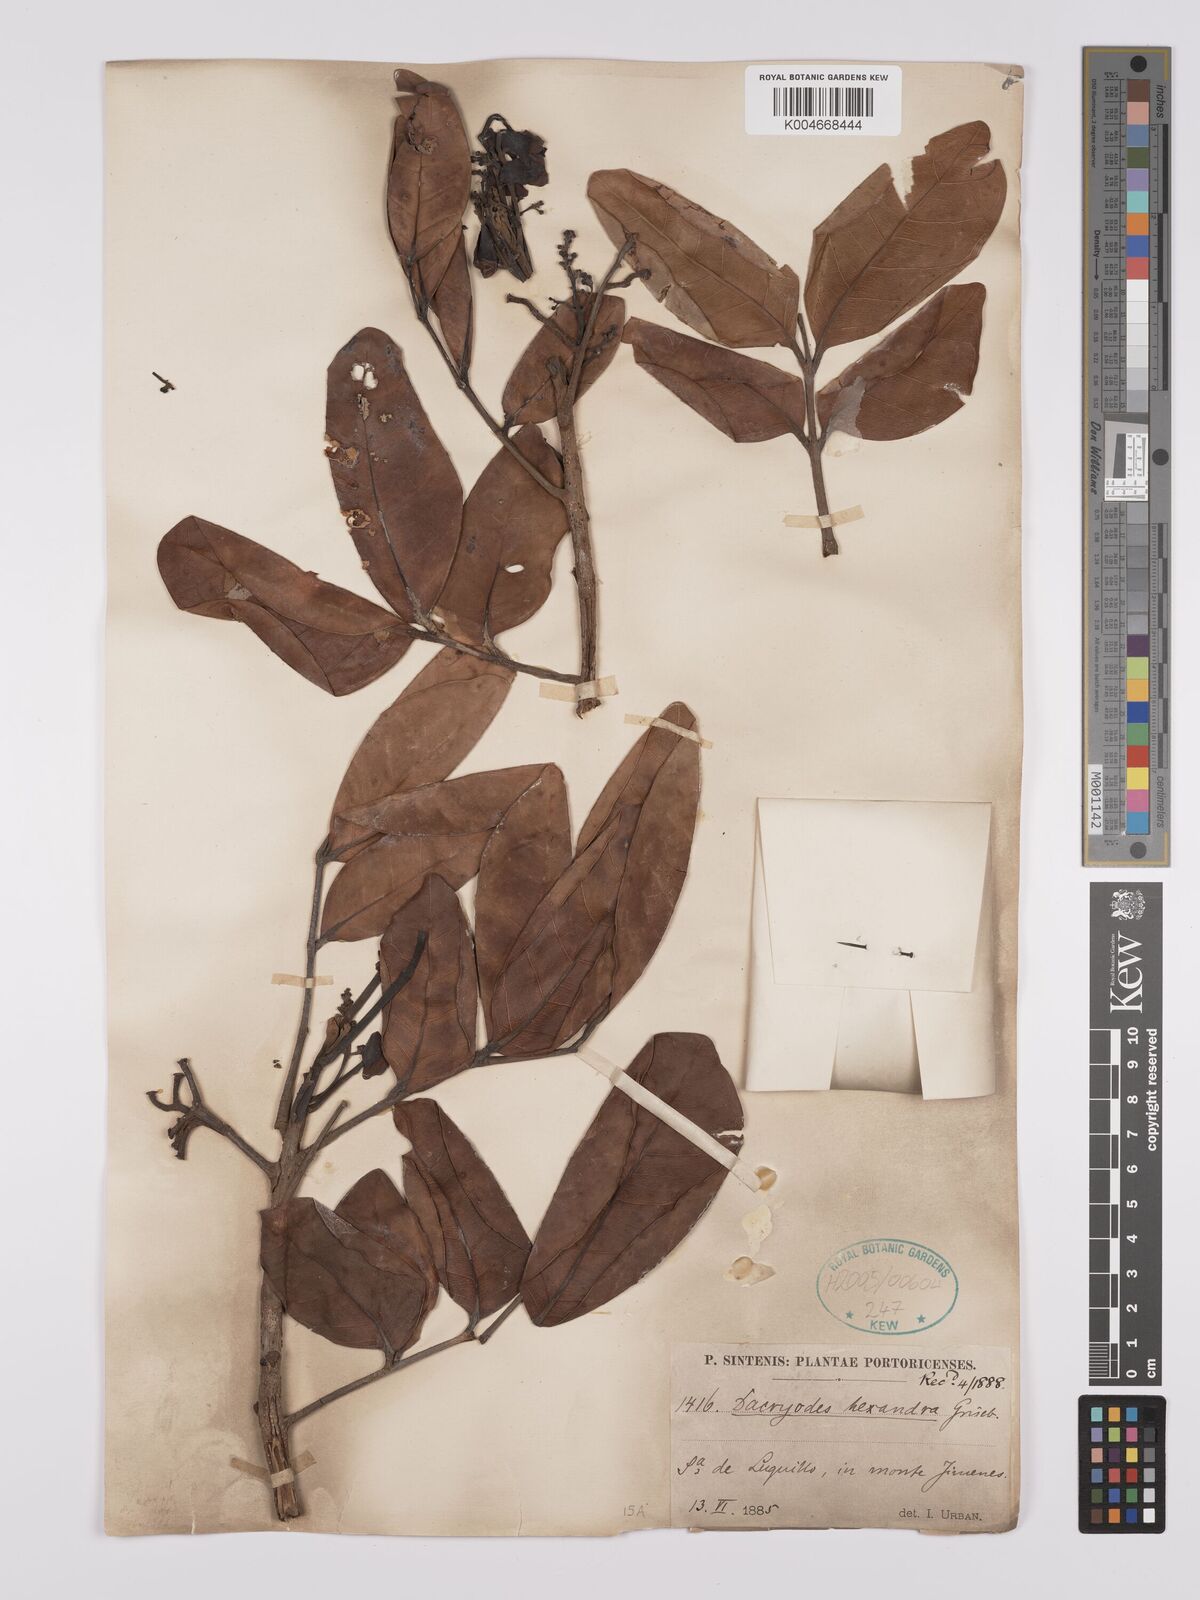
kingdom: Plantae
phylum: Tracheophyta
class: Magnoliopsida
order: Sapindales
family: Burseraceae
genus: Dacryodes
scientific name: Dacryodes excelsa
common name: Candlewood
